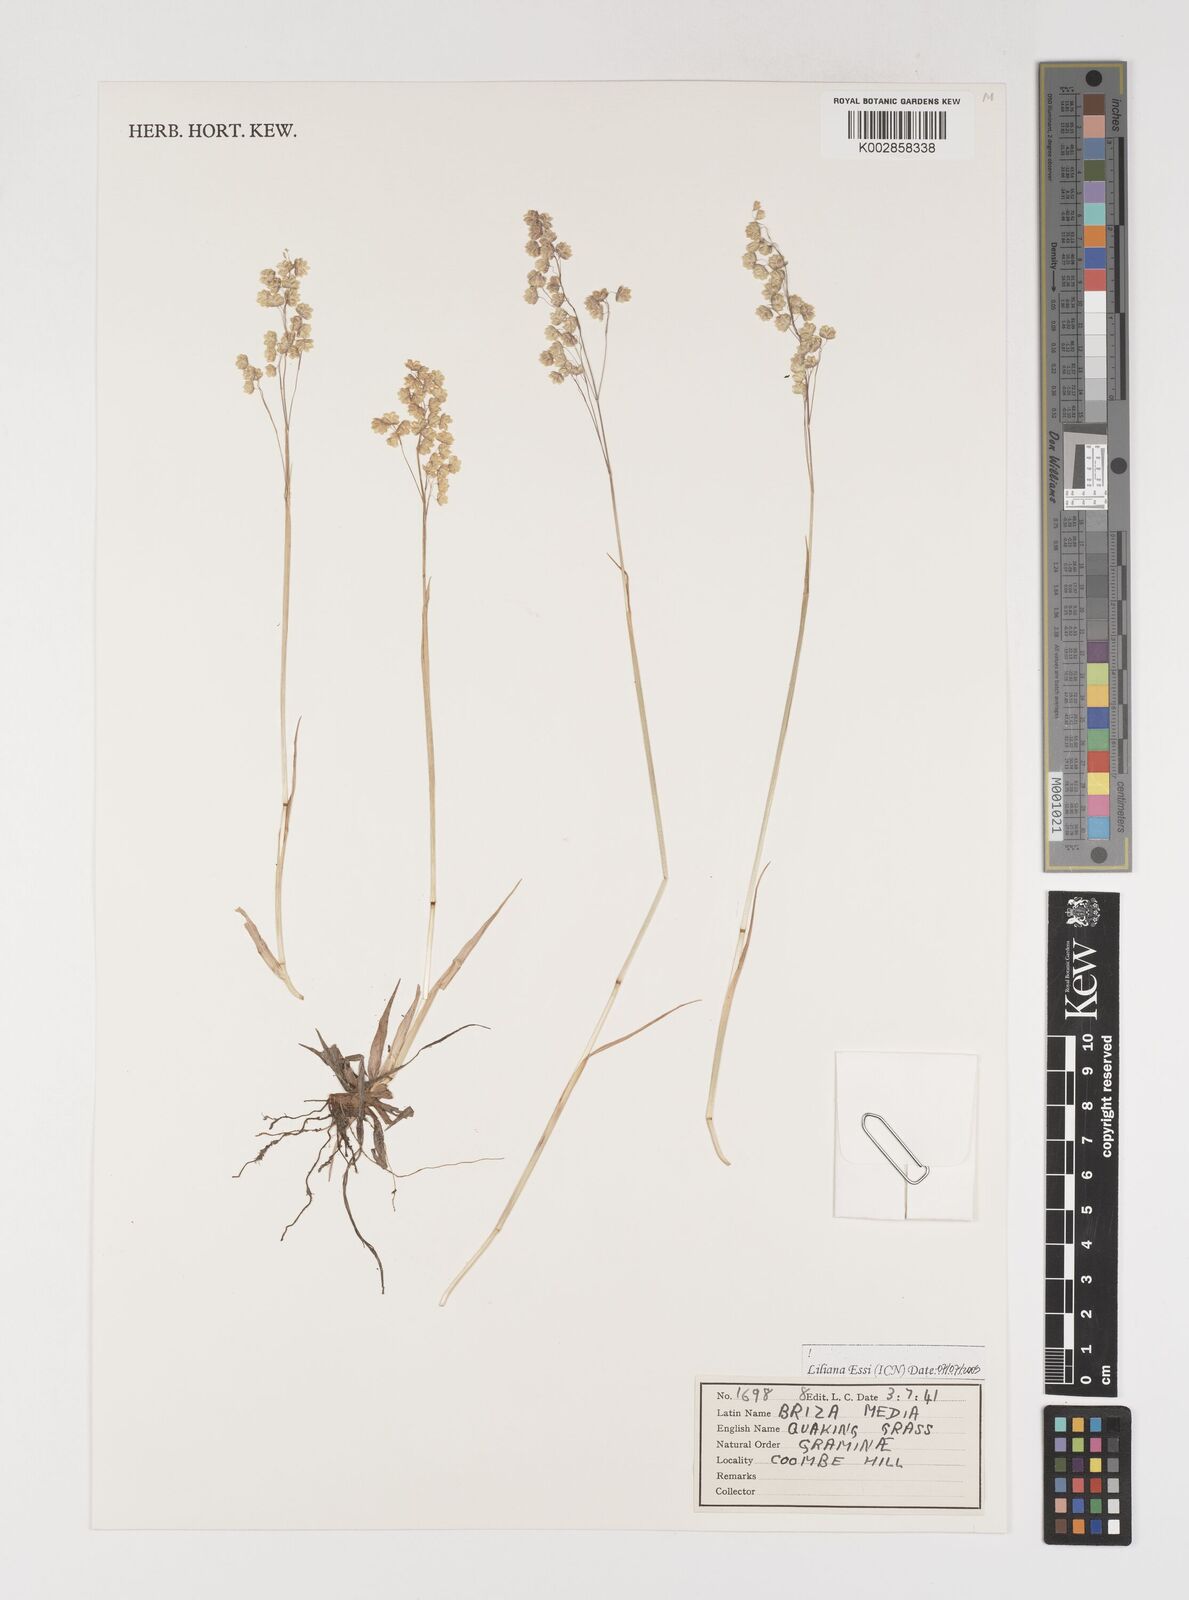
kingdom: Plantae
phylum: Tracheophyta
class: Liliopsida
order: Poales
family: Poaceae
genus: Briza
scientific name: Briza media
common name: Quaking grass
